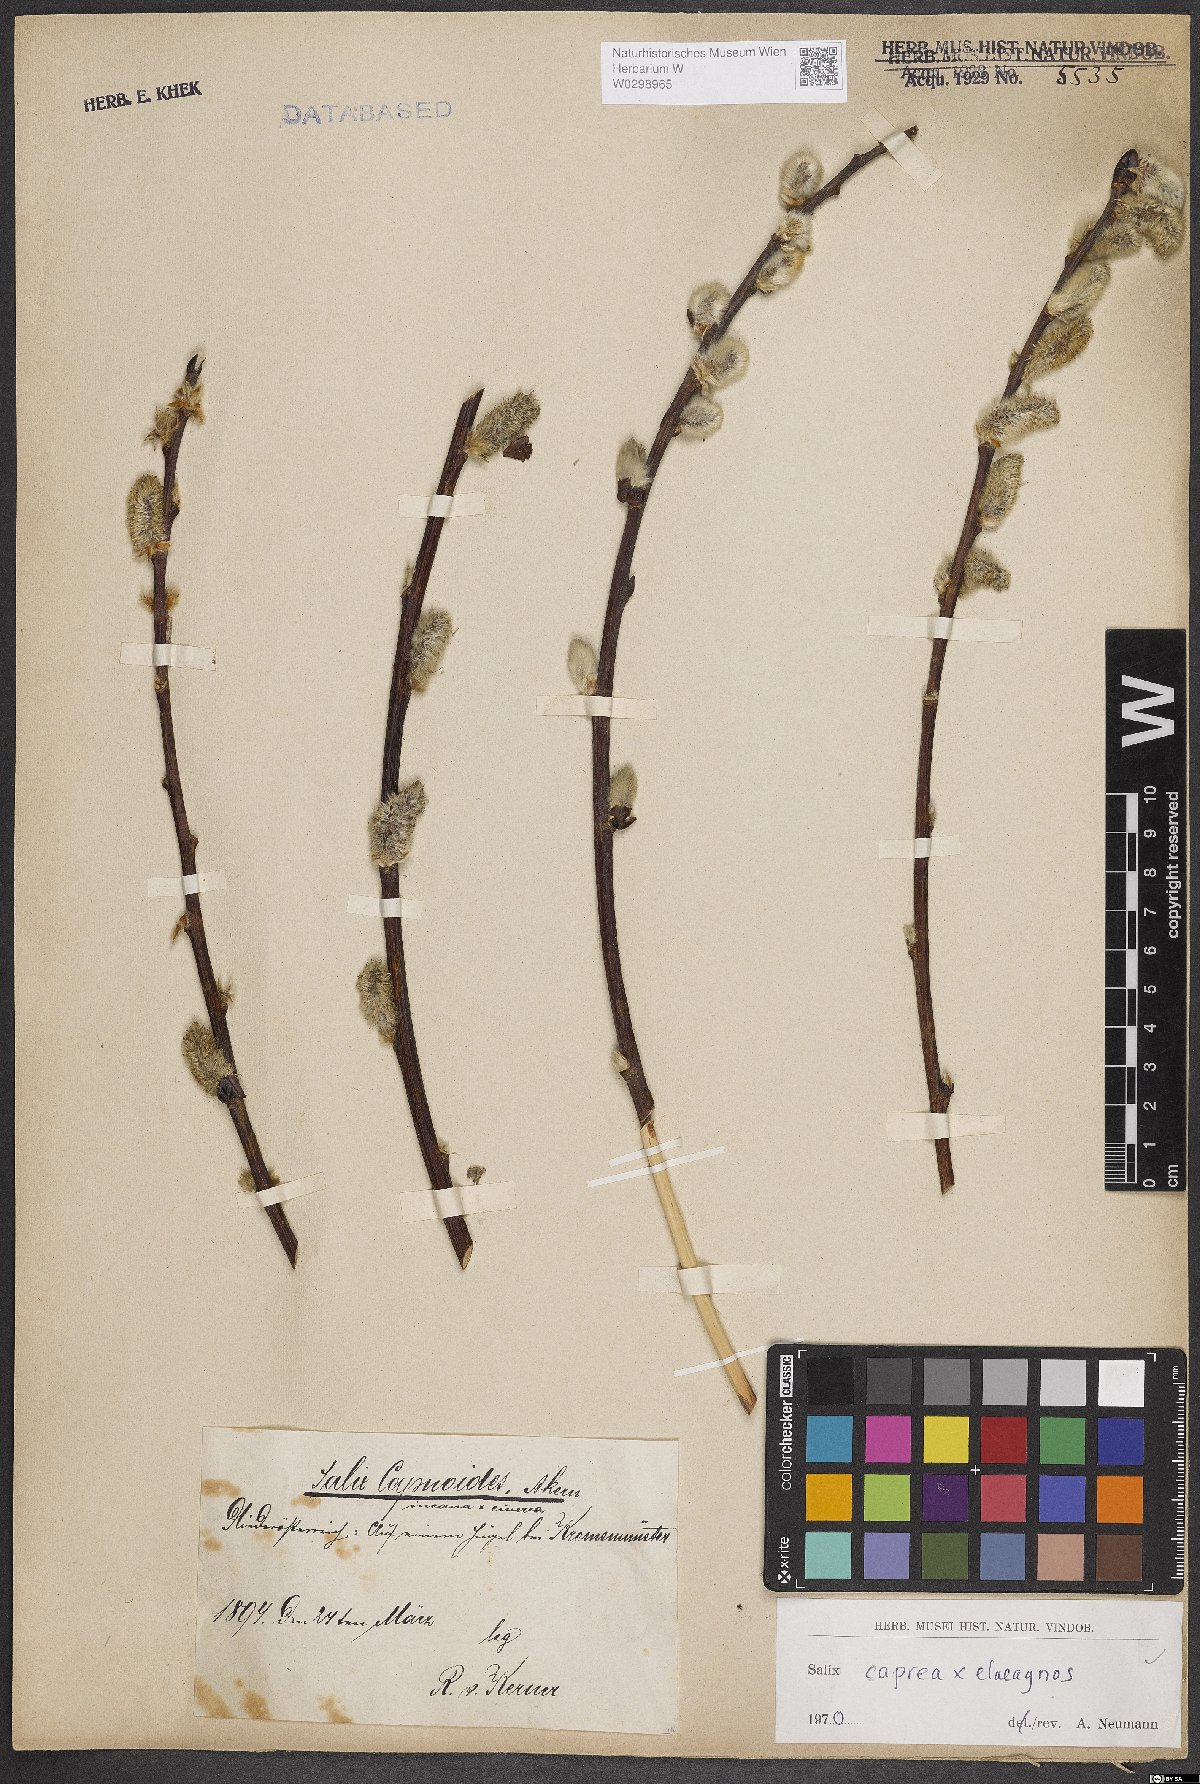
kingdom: Plantae
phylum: Tracheophyta
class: Magnoliopsida
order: Malpighiales
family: Salicaceae
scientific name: Salicaceae
